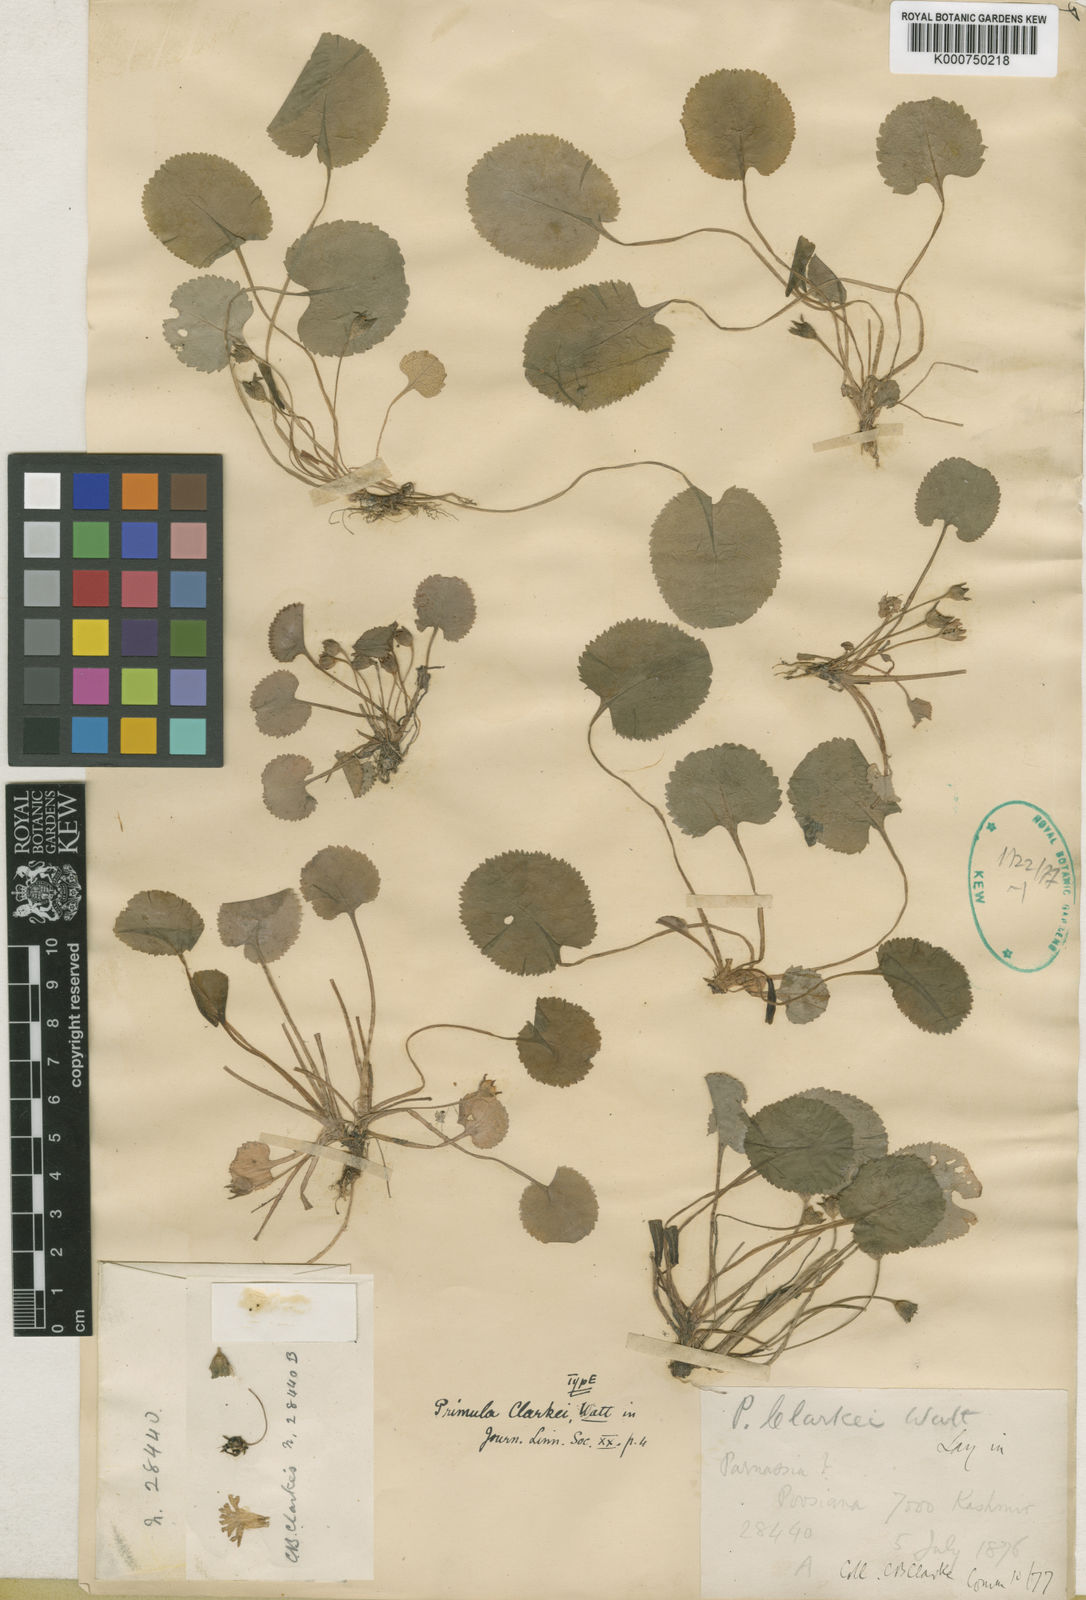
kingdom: Plantae
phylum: Tracheophyta
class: Magnoliopsida
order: Ericales
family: Primulaceae
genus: Primula
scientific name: Primula clarkei
